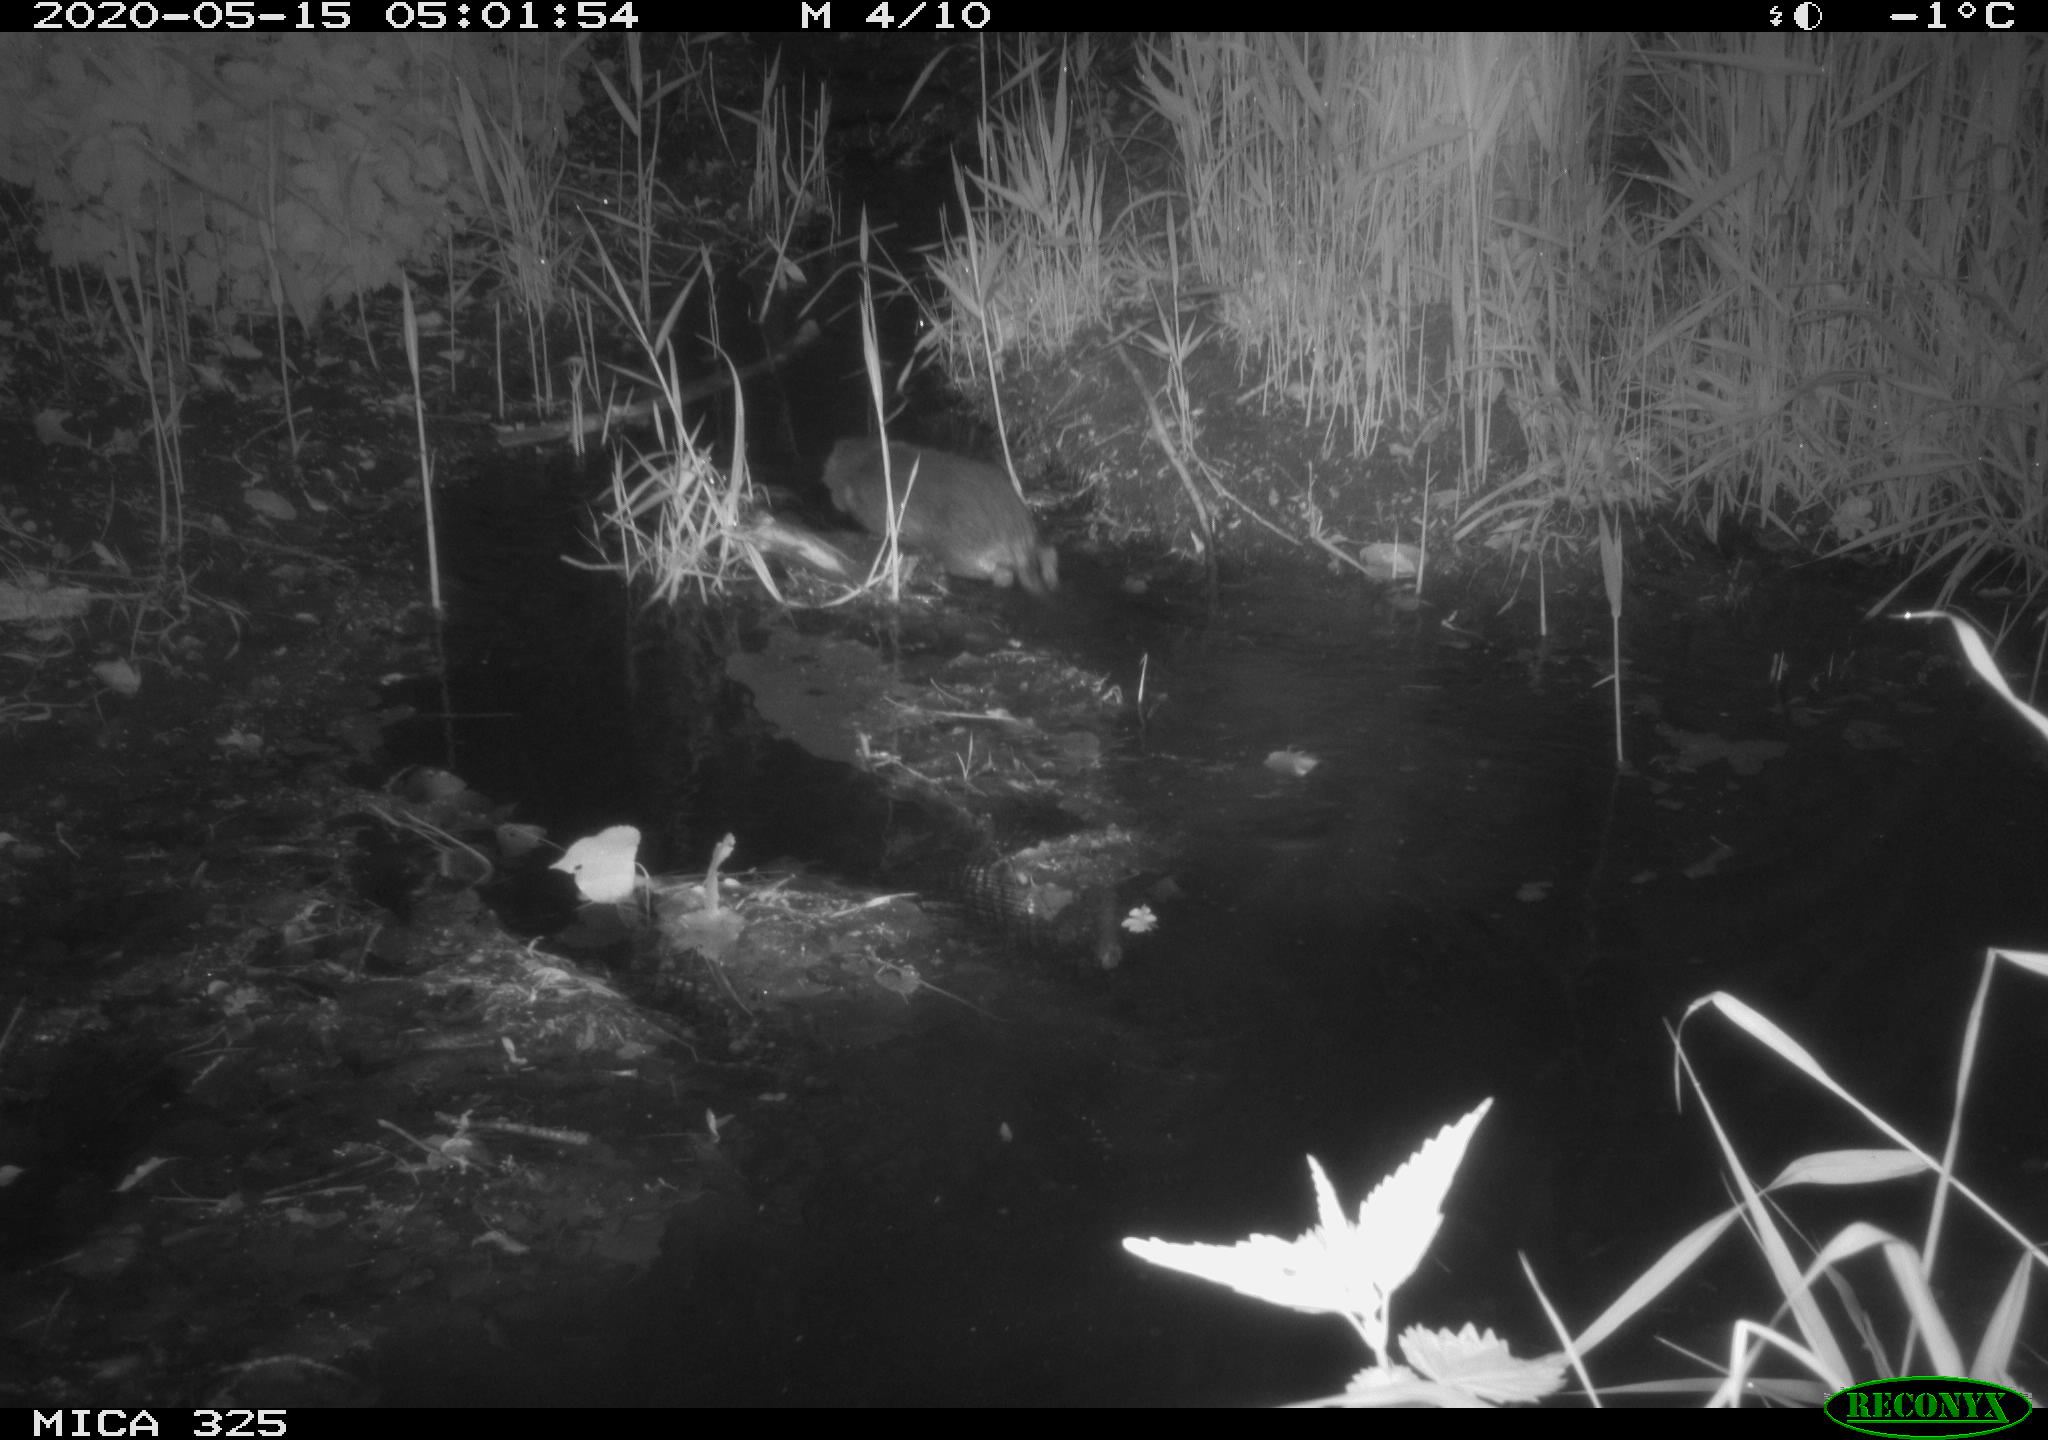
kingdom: Animalia
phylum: Chordata
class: Mammalia
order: Rodentia
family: Myocastoridae
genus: Myocastor
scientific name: Myocastor coypus
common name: Coypu
